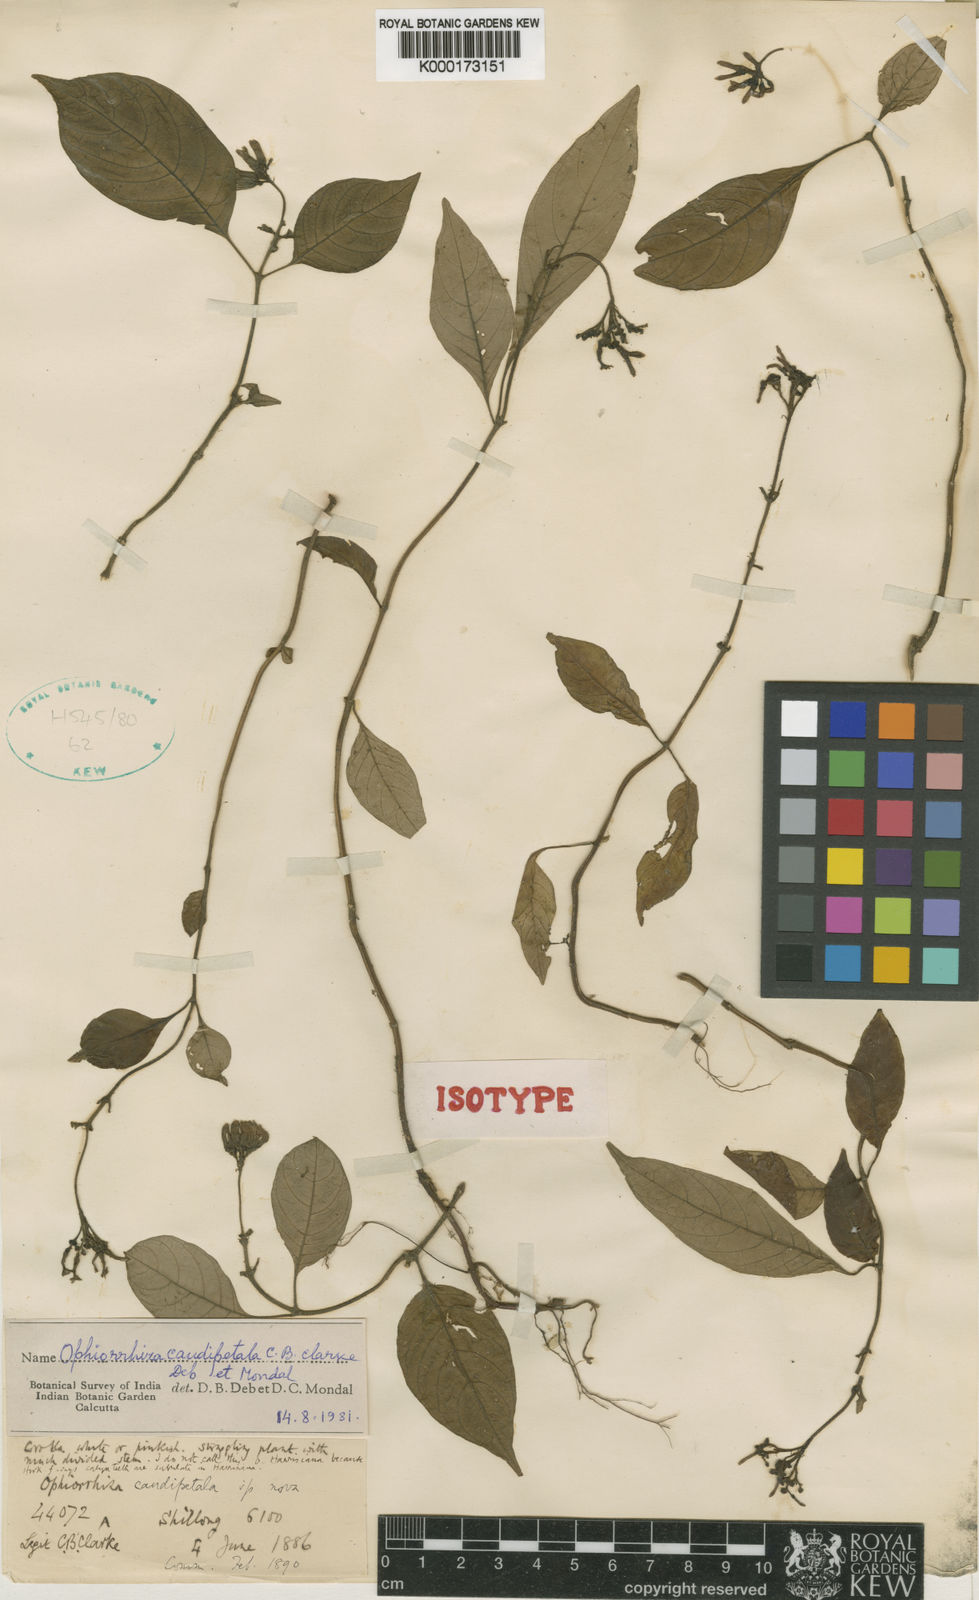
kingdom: Plantae
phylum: Tracheophyta
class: Magnoliopsida
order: Gentianales
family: Rubiaceae
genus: Ophiorrhiza
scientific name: Ophiorrhiza caudipetala
